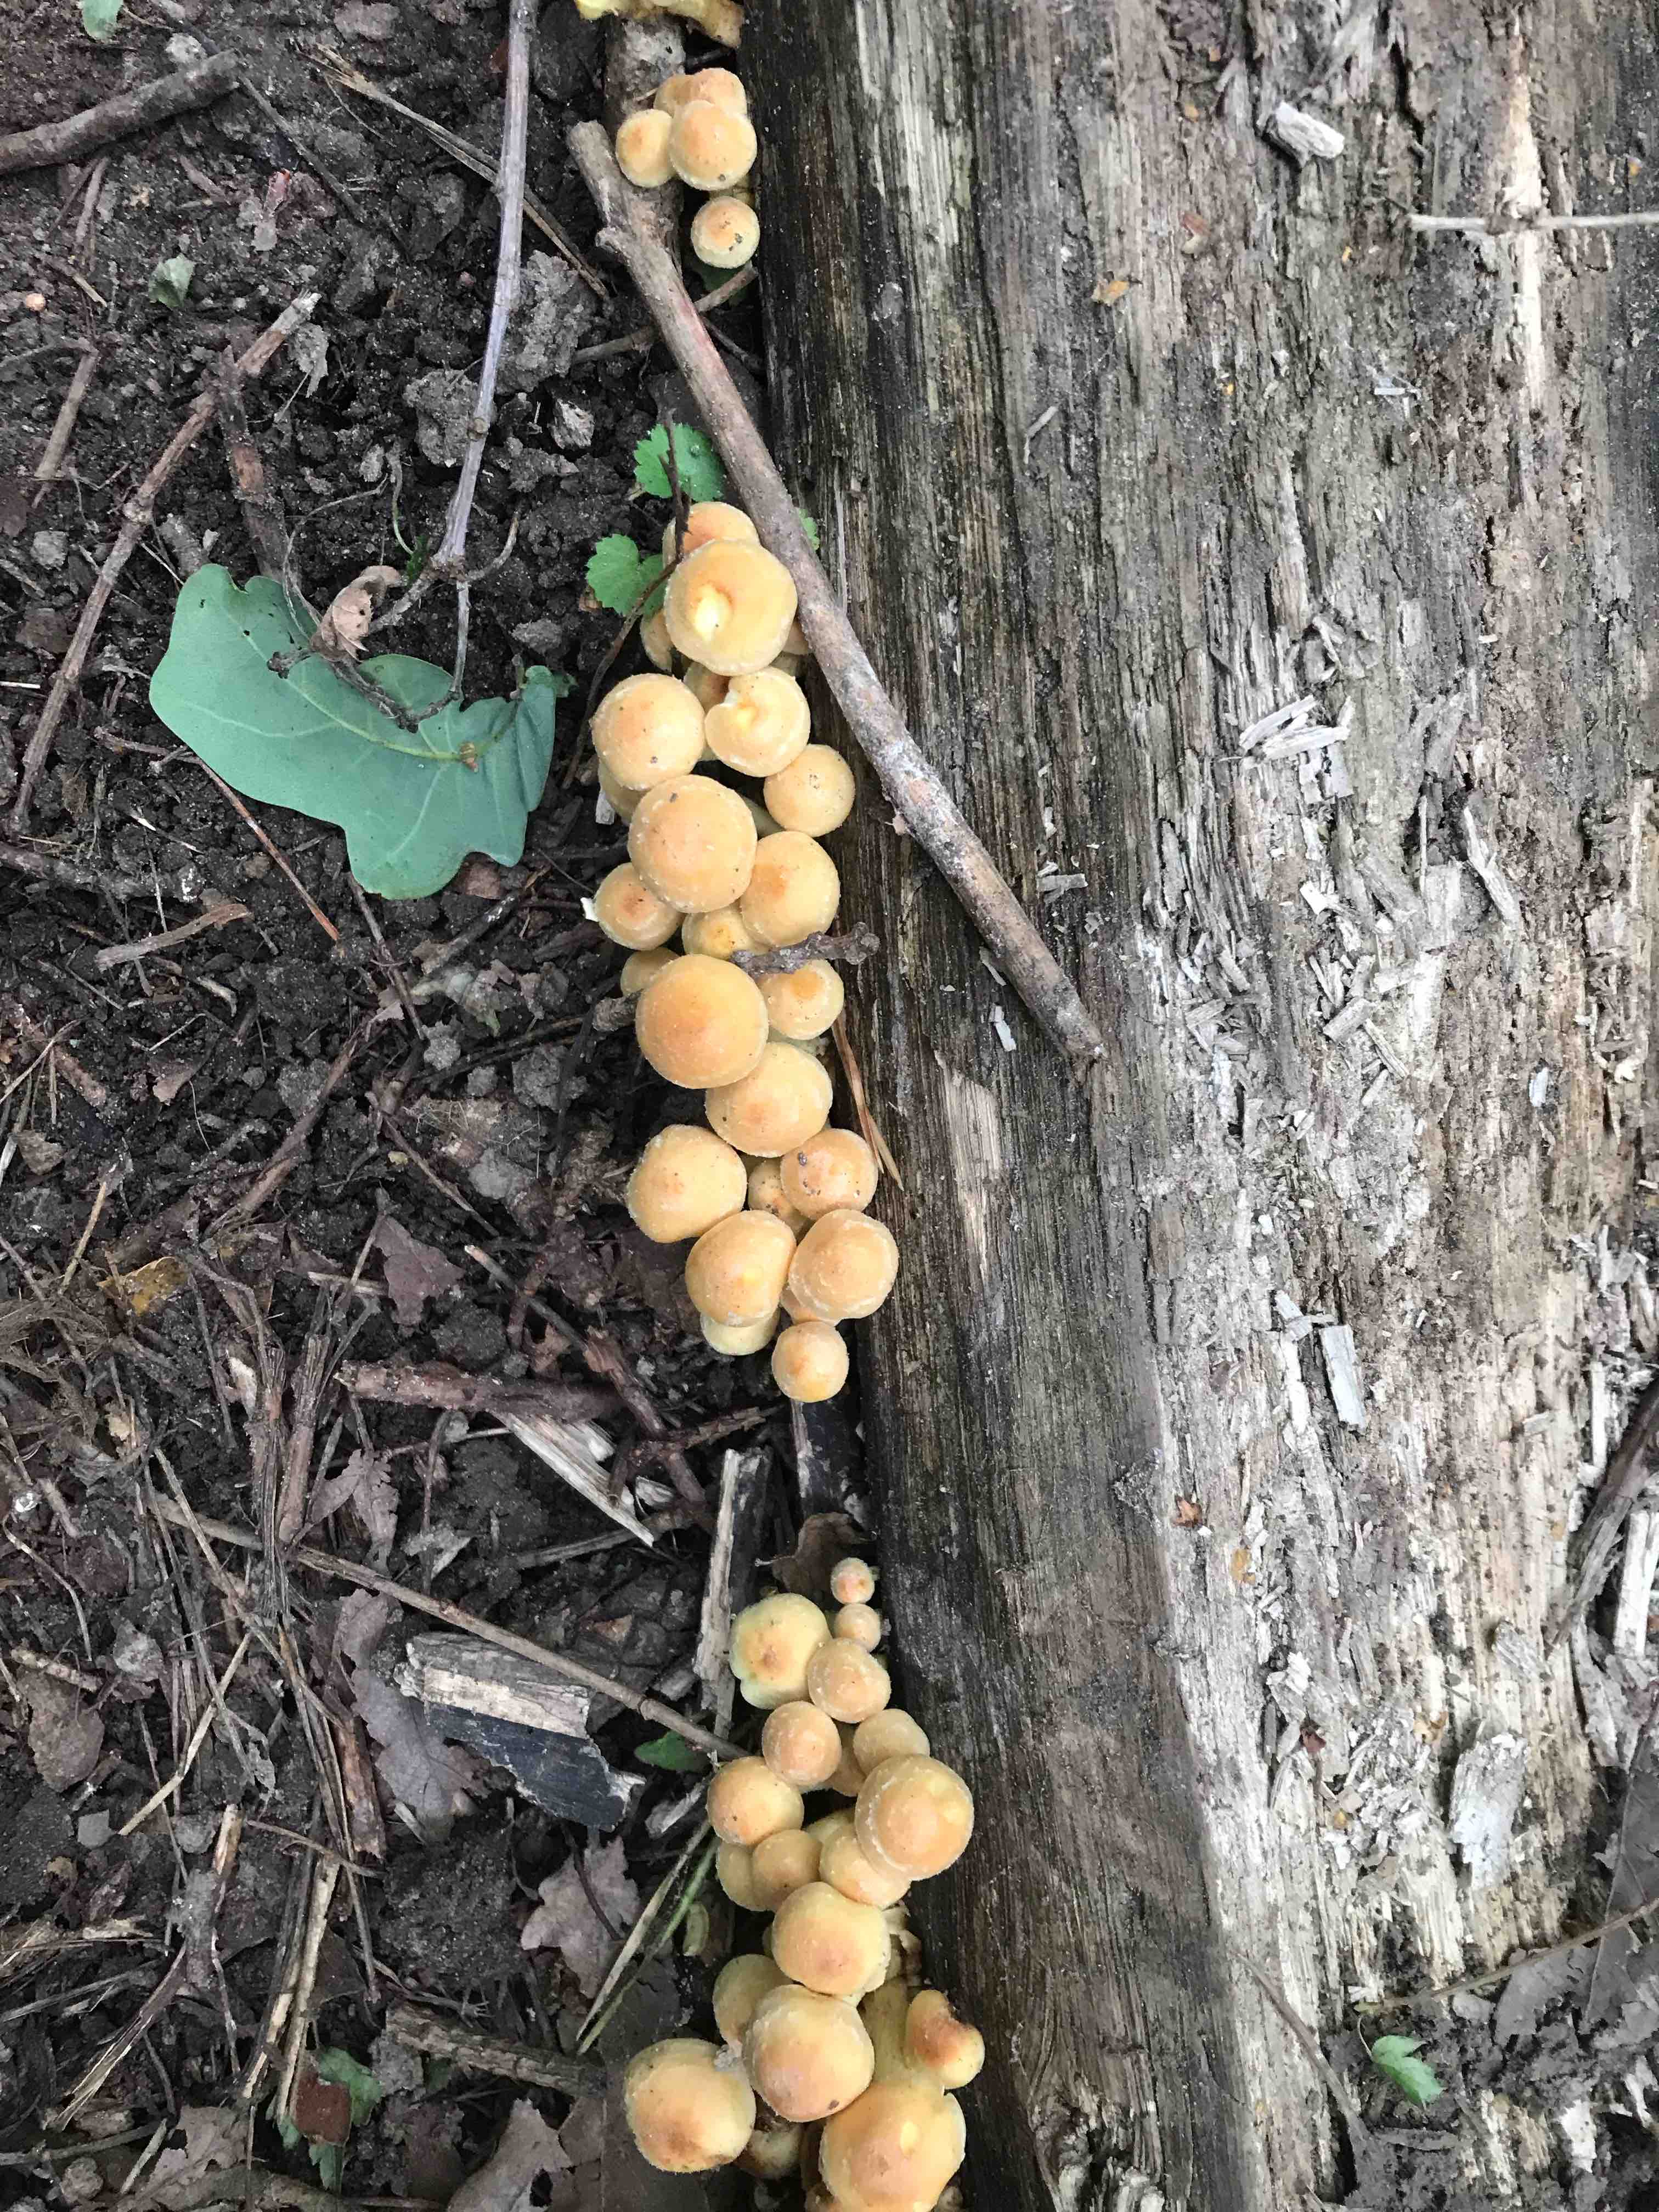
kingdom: Fungi
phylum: Basidiomycota
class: Agaricomycetes
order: Agaricales
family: Strophariaceae
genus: Hypholoma
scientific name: Hypholoma fasciculare
